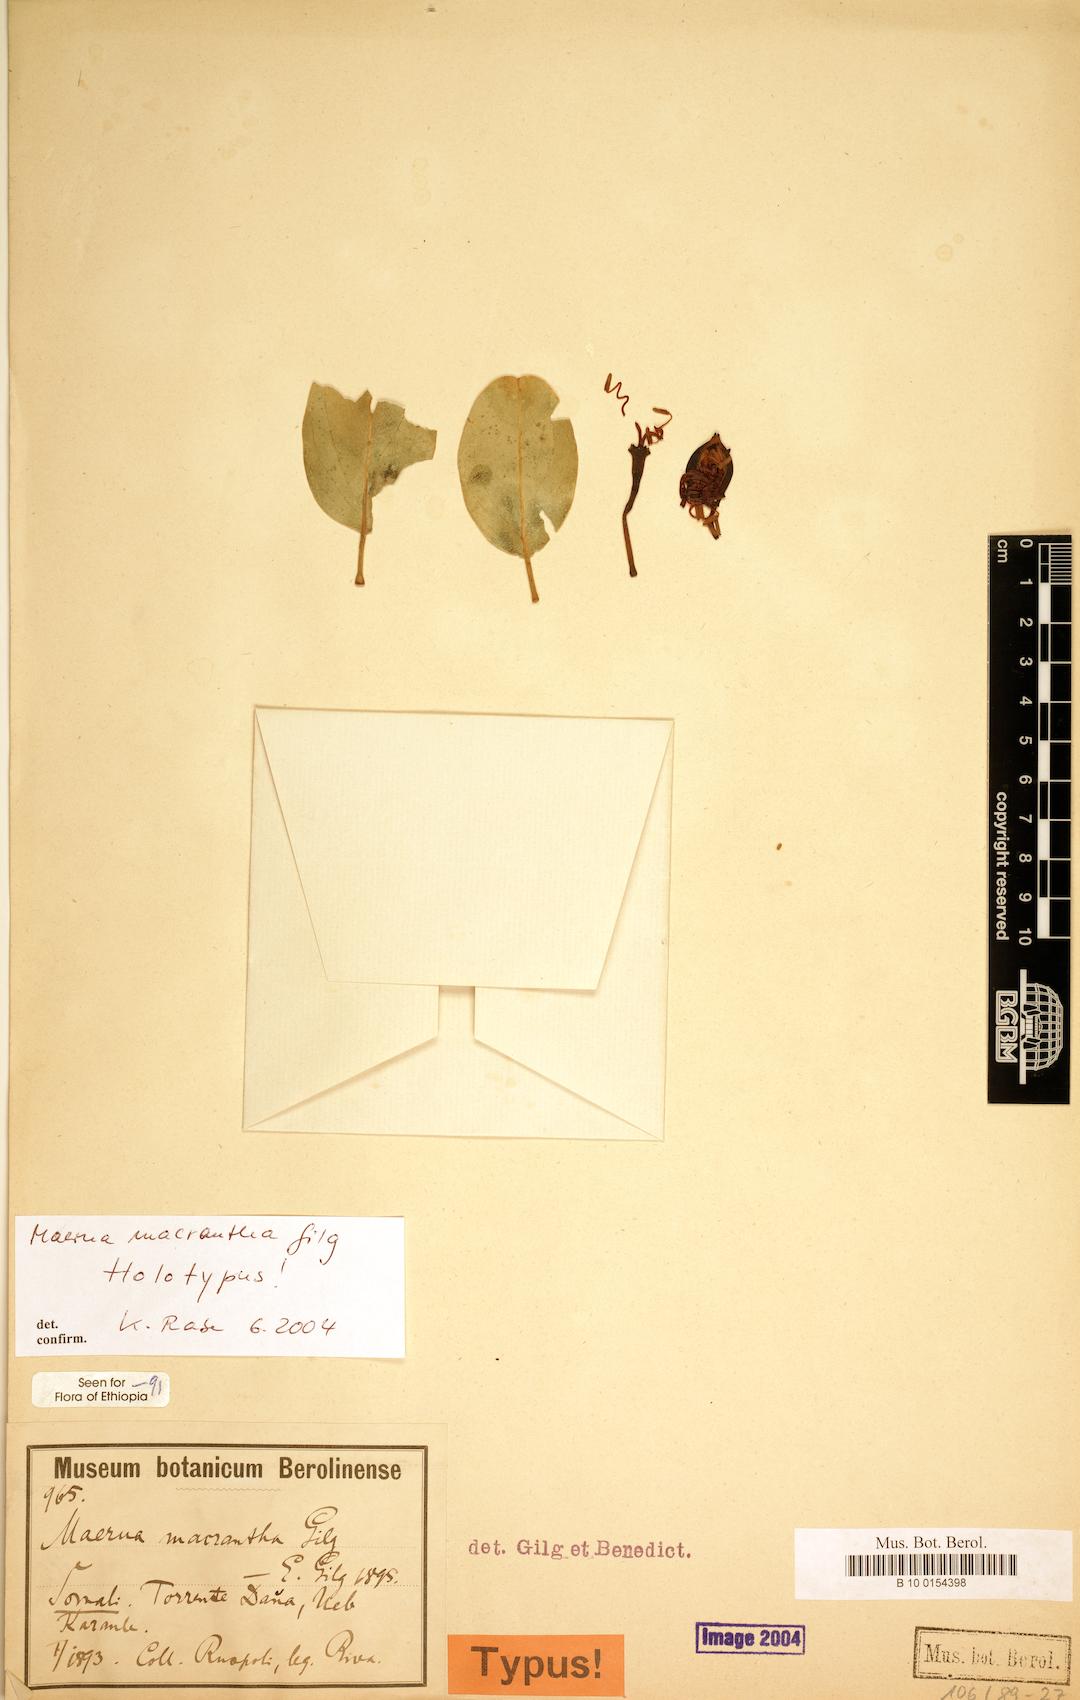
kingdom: Plantae
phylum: Tracheophyta
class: Magnoliopsida
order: Brassicales
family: Capparaceae
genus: Maerua
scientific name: Maerua macrantha
